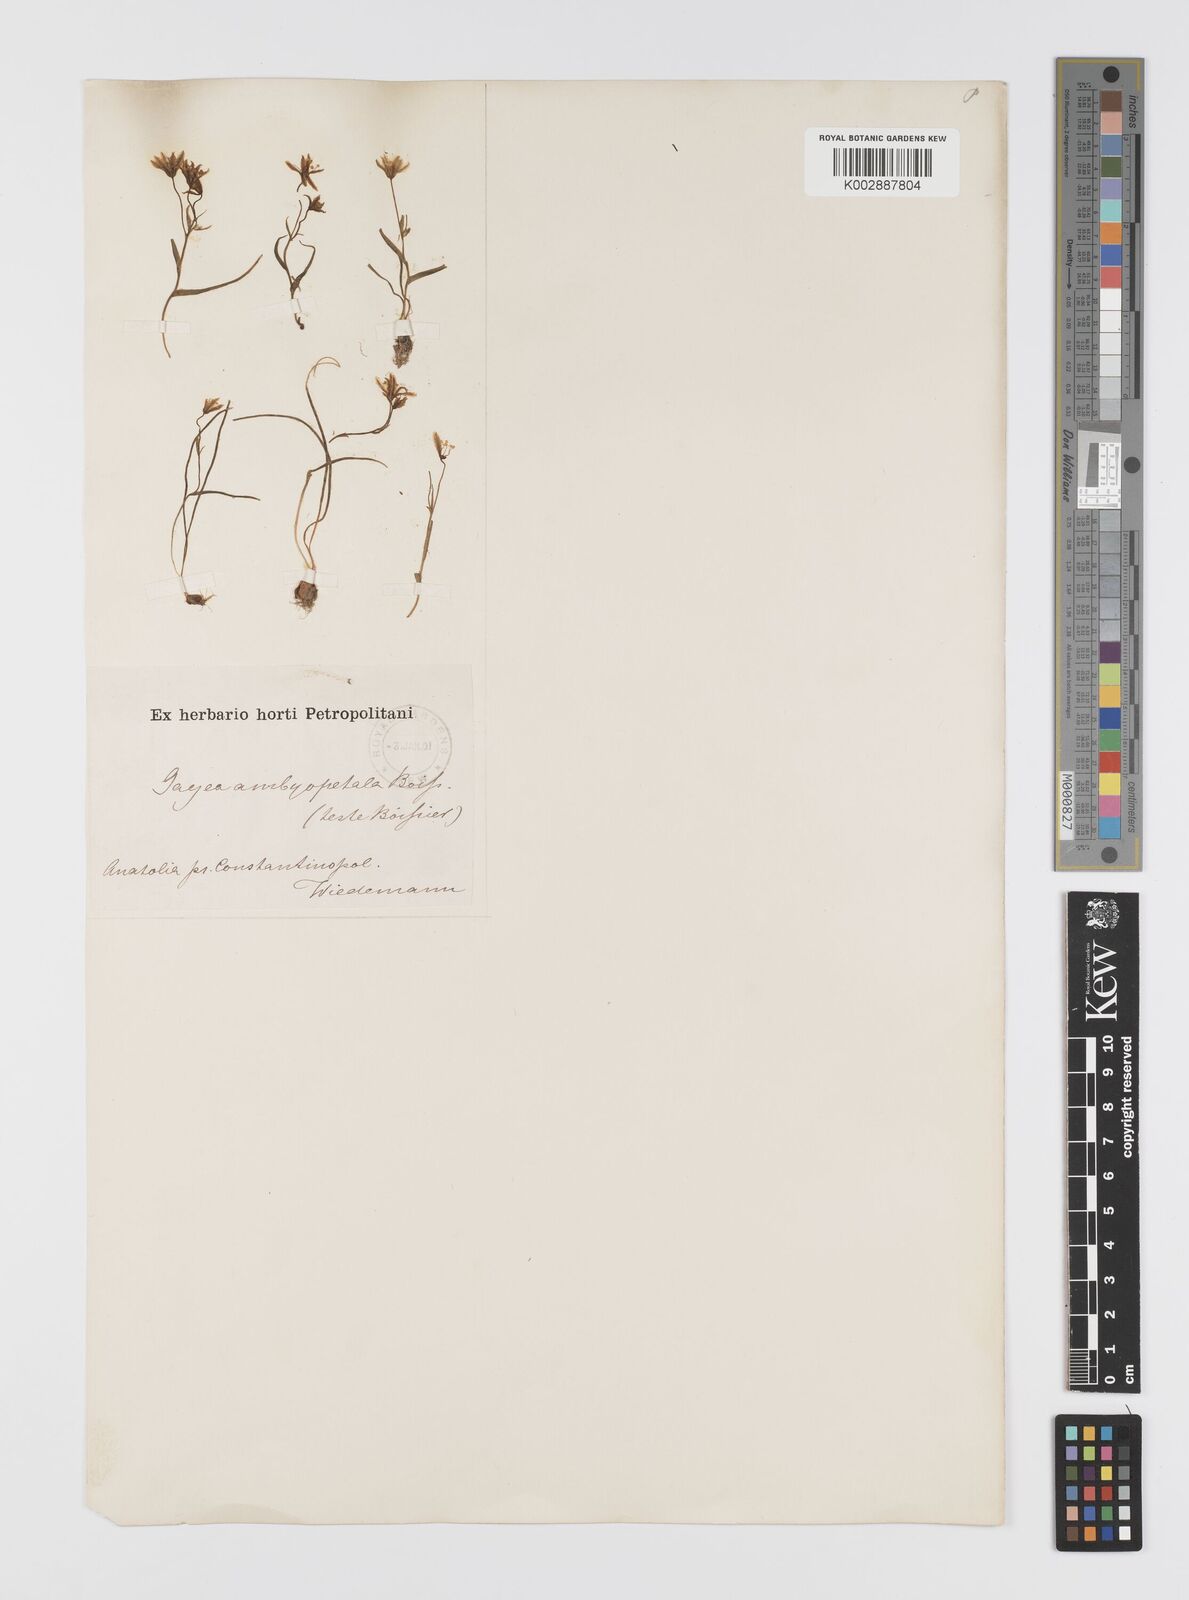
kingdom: Plantae
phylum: Tracheophyta
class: Liliopsida
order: Liliales
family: Liliaceae
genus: Gagea
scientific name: Gagea longifolia
